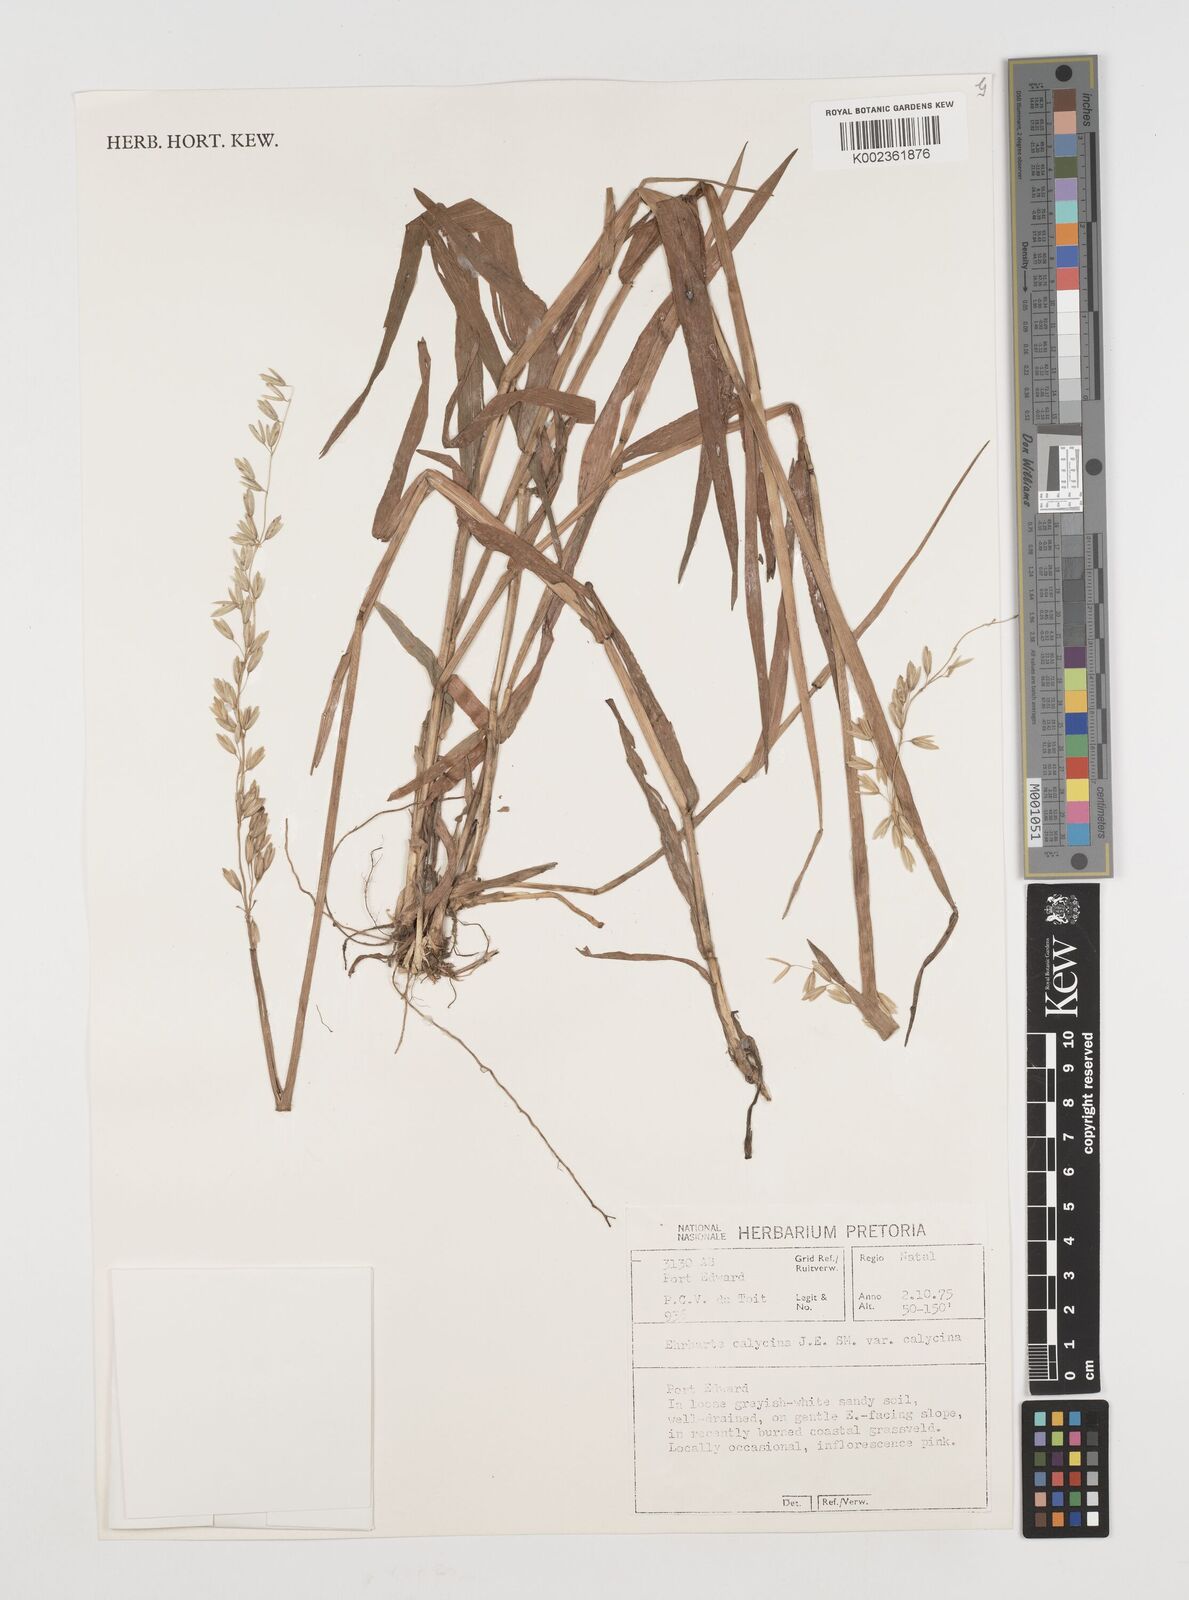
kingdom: Plantae
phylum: Tracheophyta
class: Liliopsida
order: Poales
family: Poaceae
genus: Ehrharta
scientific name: Ehrharta
